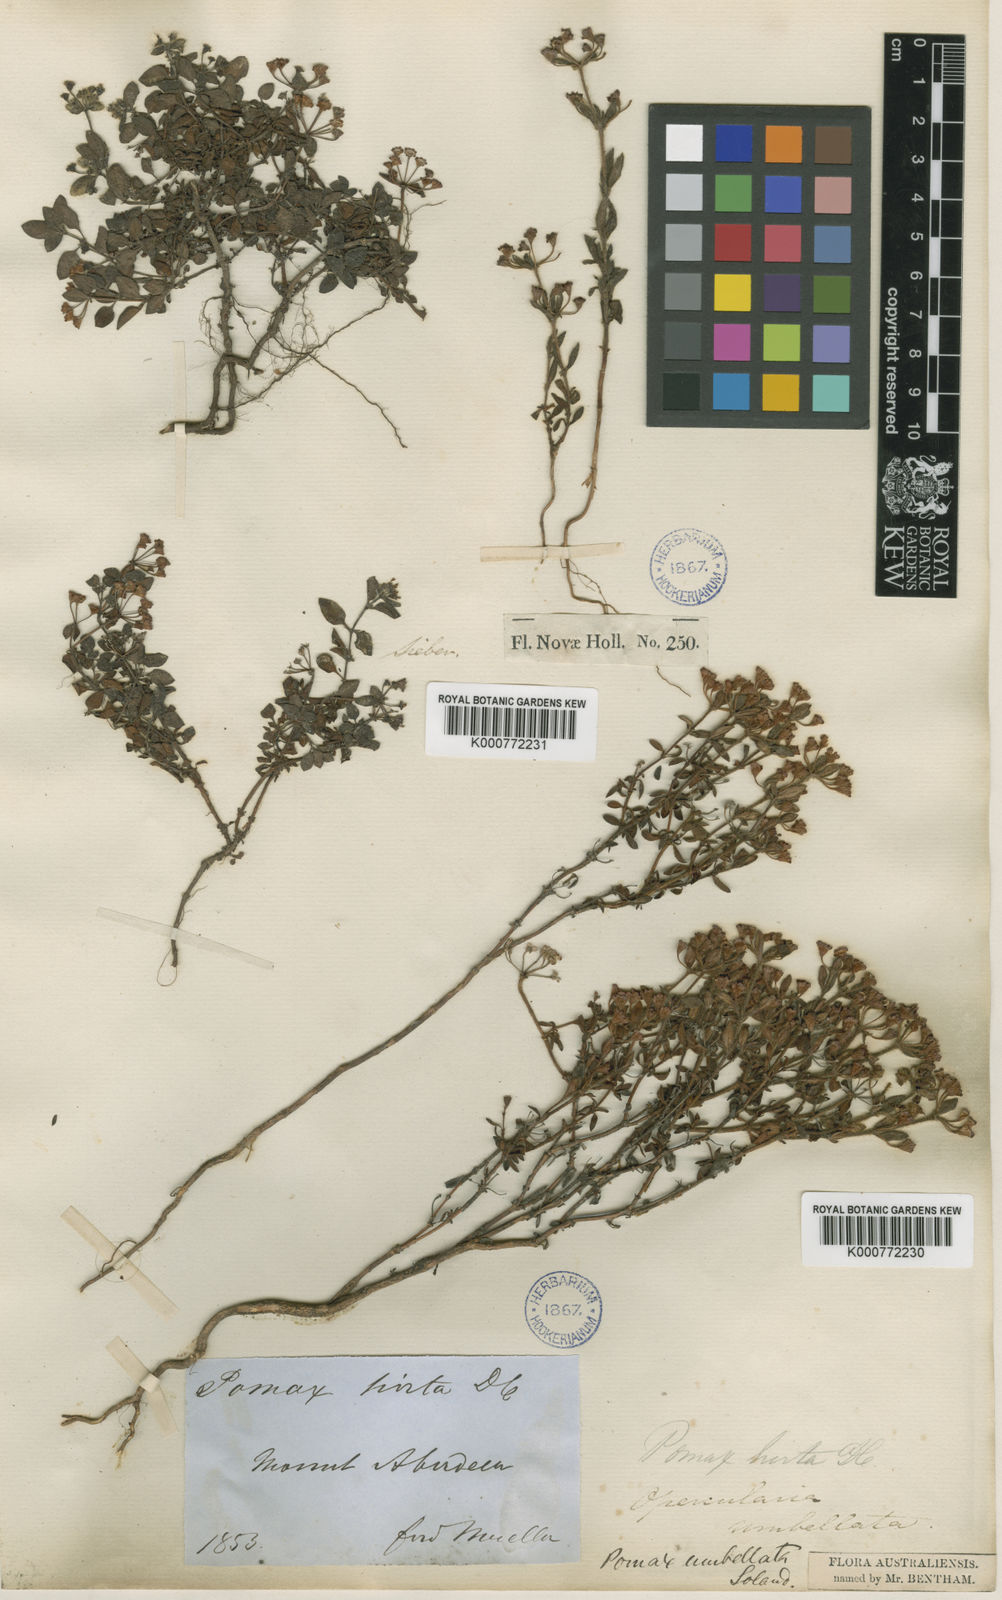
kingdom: Plantae
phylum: Tracheophyta
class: Magnoliopsida
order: Gentianales
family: Rubiaceae
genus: Pomax
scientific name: Pomax umbellata
